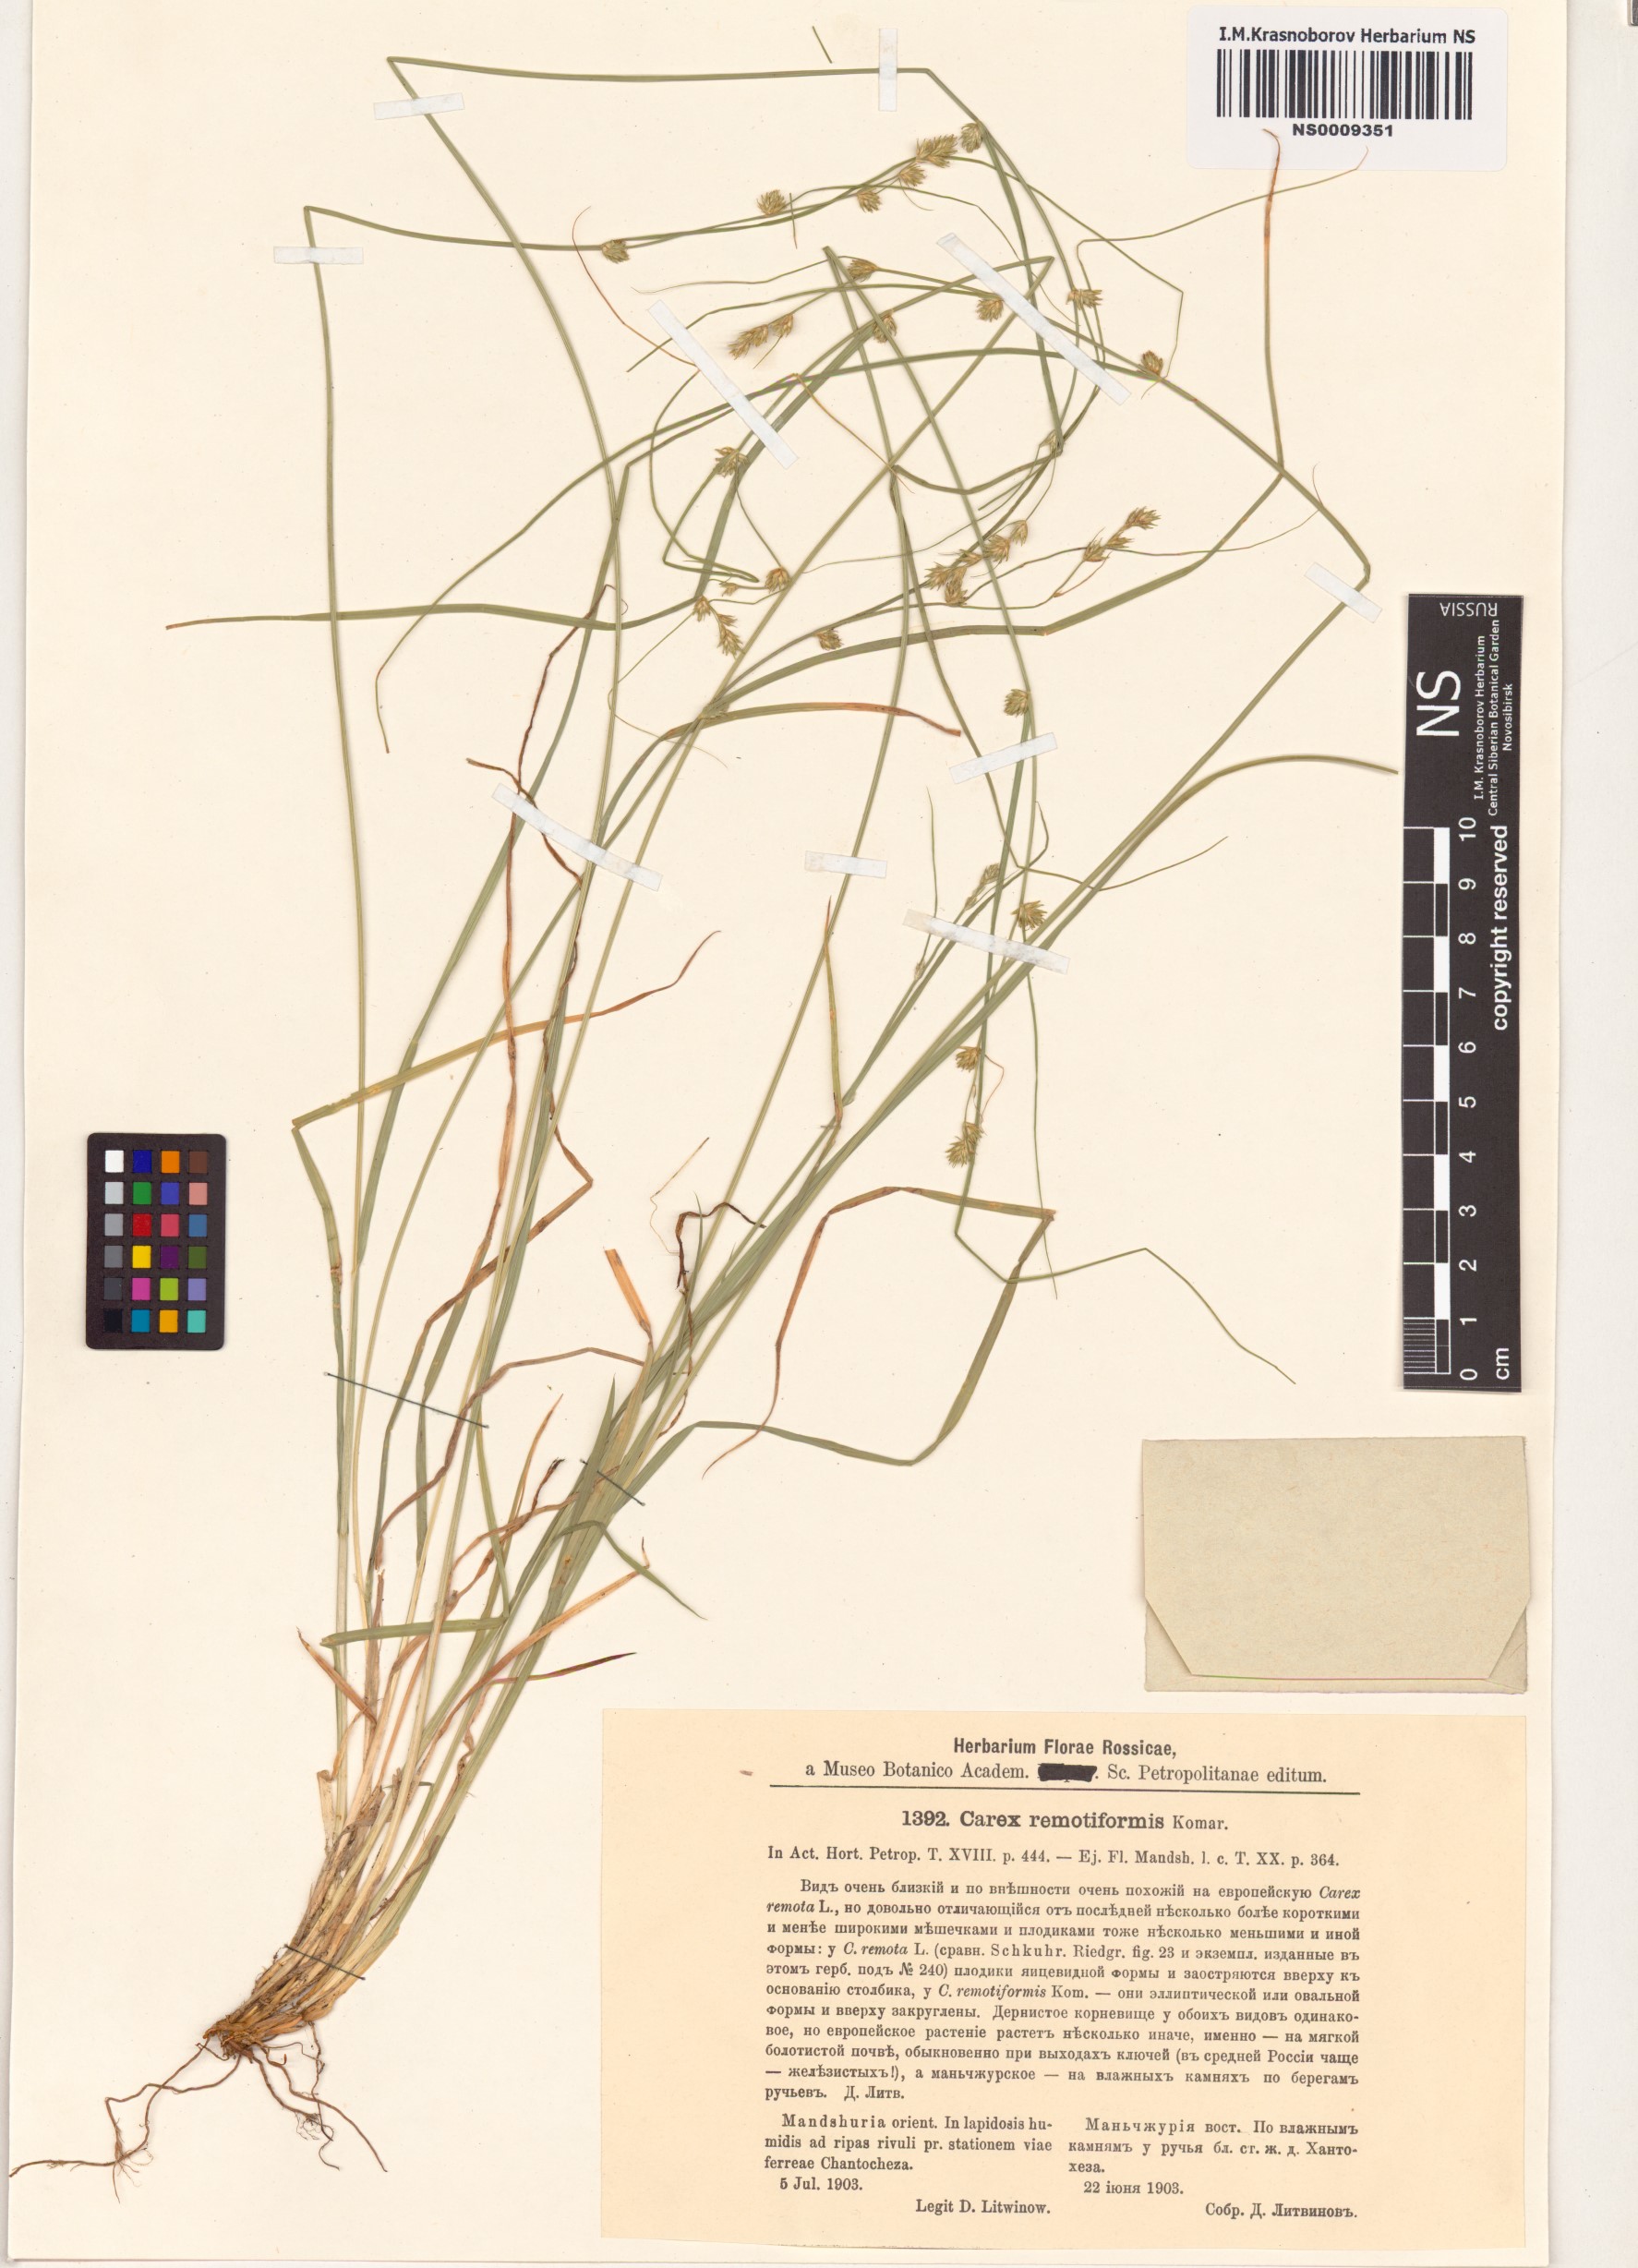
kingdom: Plantae
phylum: Tracheophyta
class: Liliopsida
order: Poales
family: Cyperaceae
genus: Carex
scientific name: Carex remotiuscula
